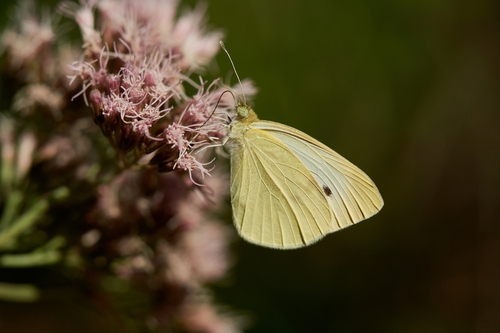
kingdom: Animalia
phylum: Arthropoda
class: Insecta
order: Lepidoptera
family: Pieridae
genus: Pieris
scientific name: Pieris rapae
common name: Small white
